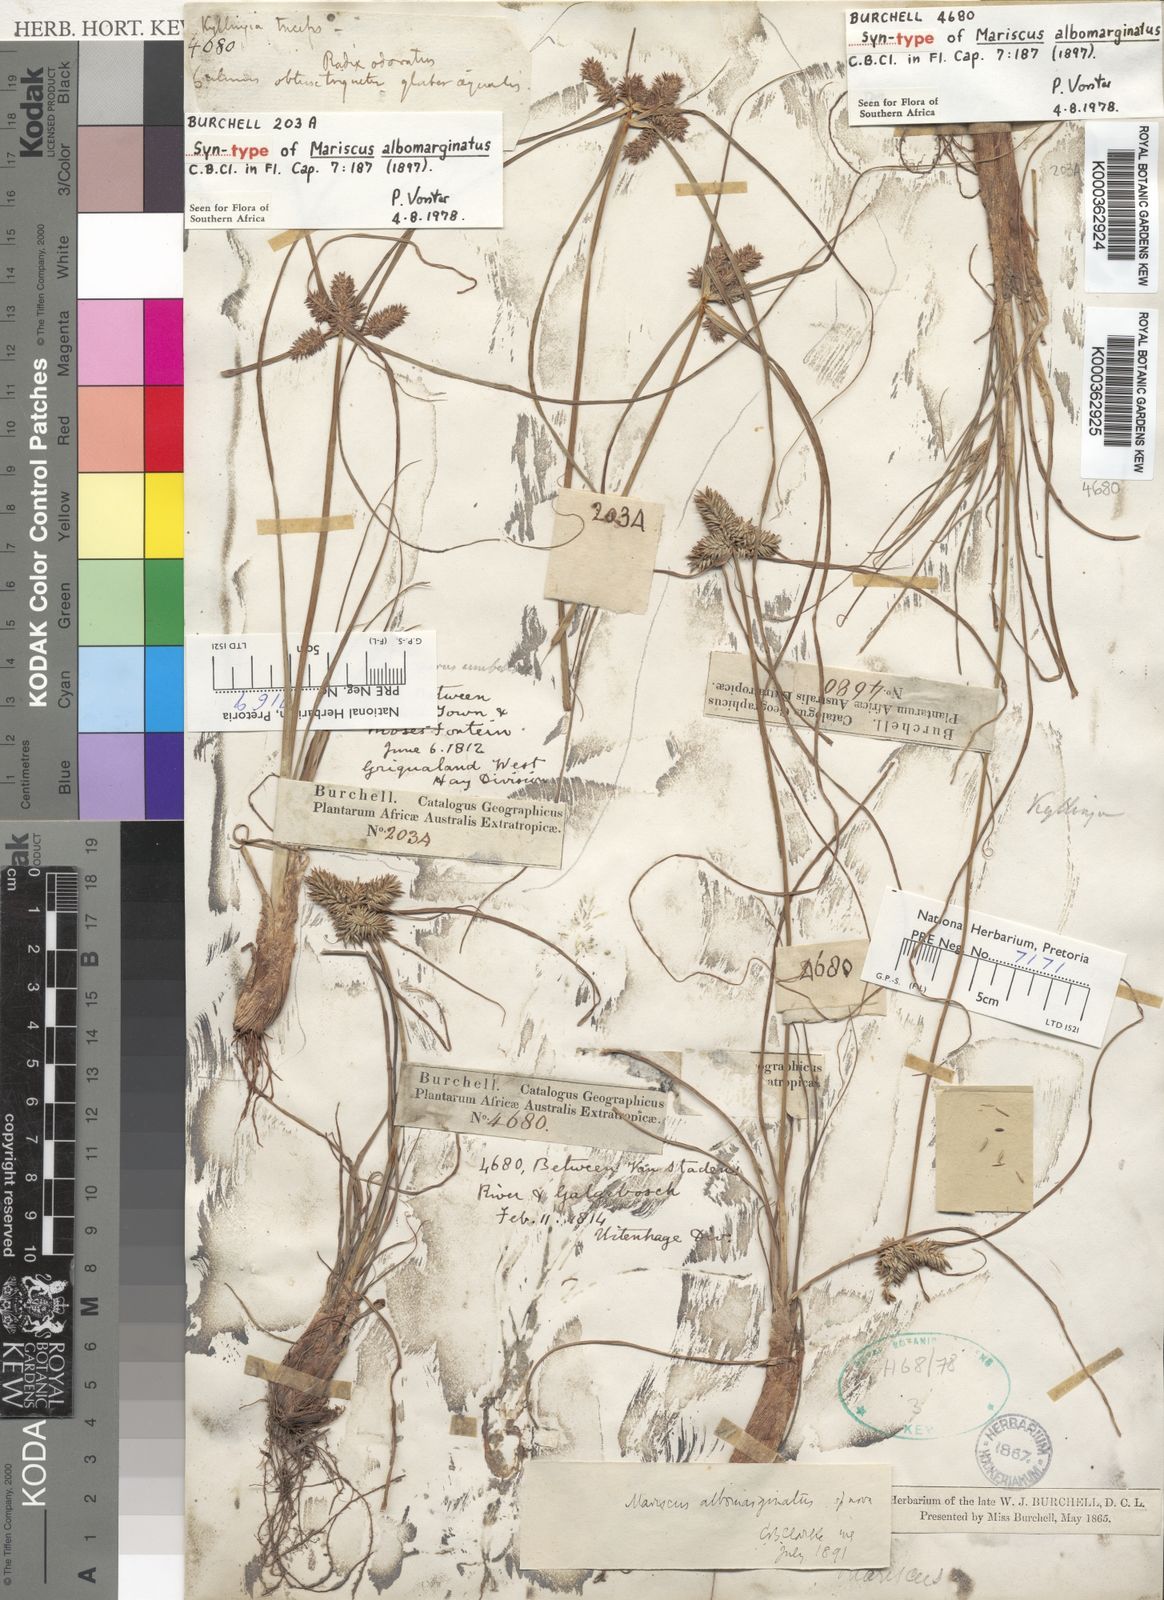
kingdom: Plantae
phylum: Tracheophyta
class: Liliopsida
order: Poales
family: Cyperaceae
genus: Cyperus
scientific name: Cyperus indecorus
